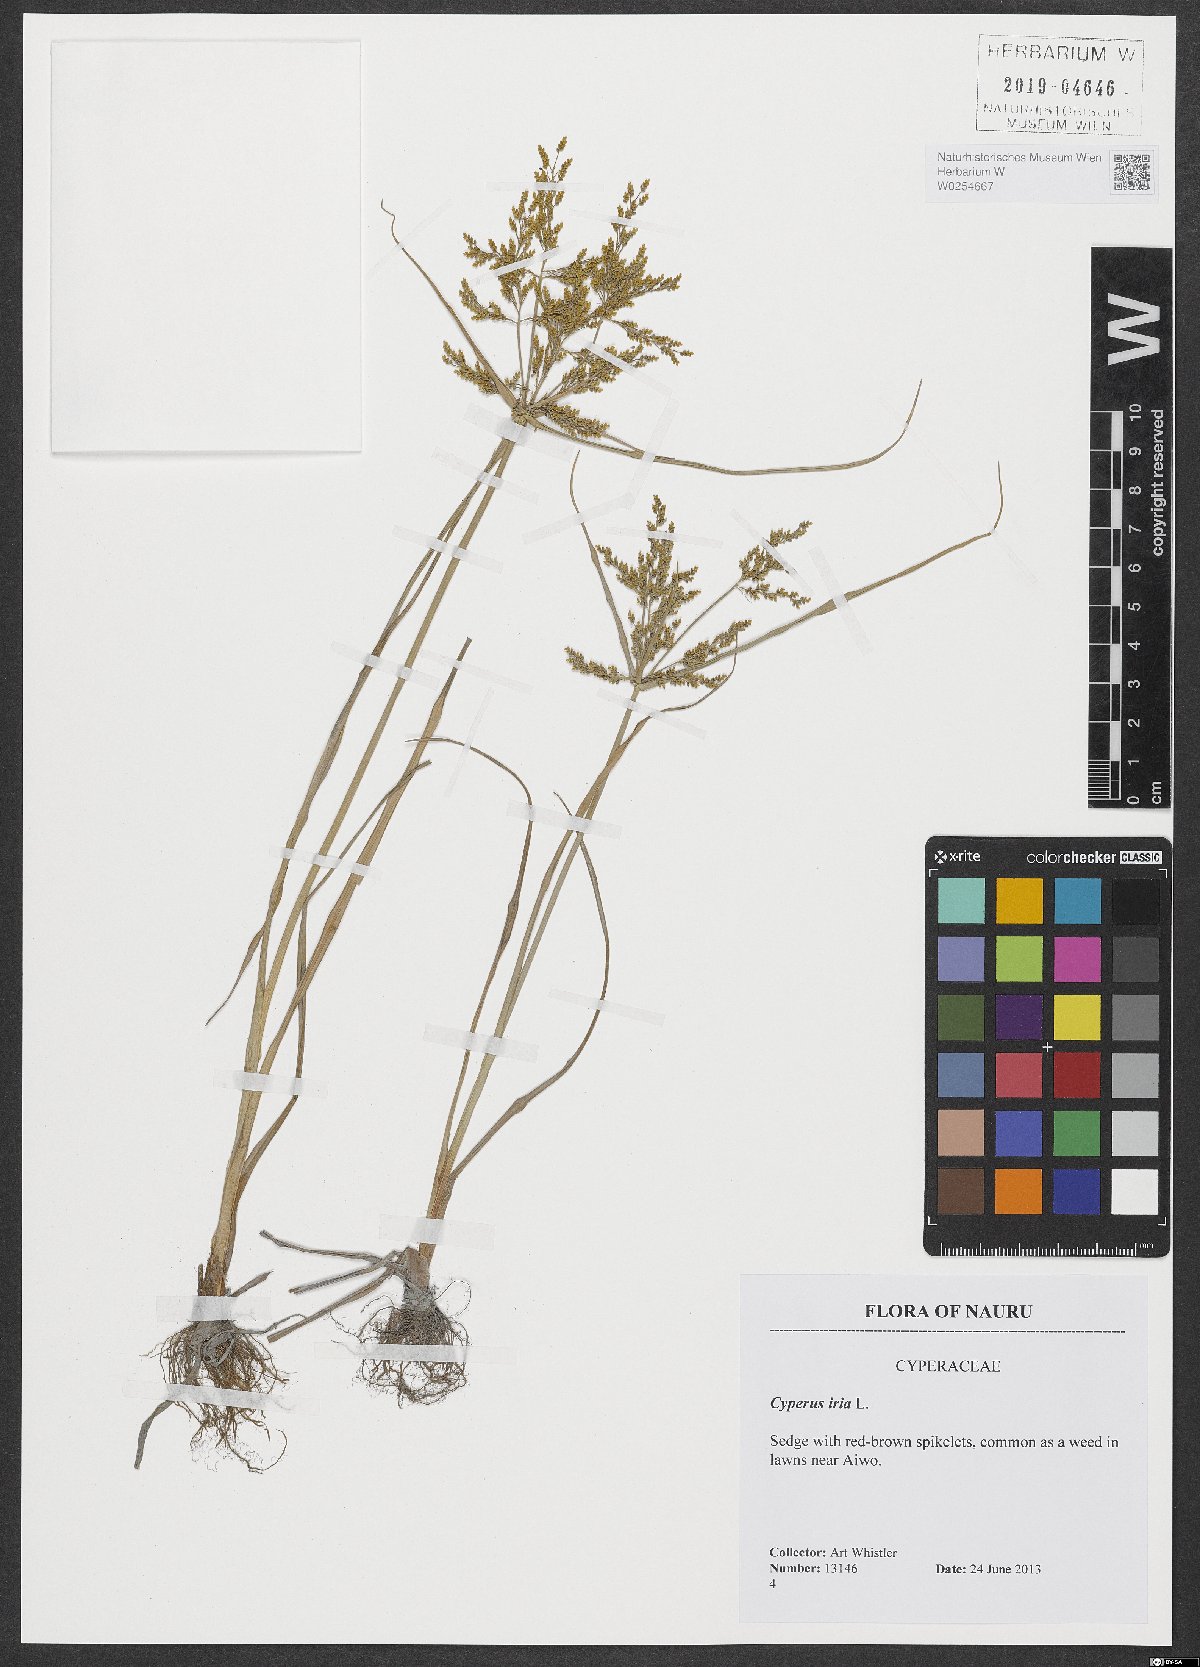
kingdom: Plantae
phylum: Tracheophyta
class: Liliopsida
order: Poales
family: Cyperaceae
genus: Cyperus
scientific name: Cyperus iria
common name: Ricefield flatsedge
